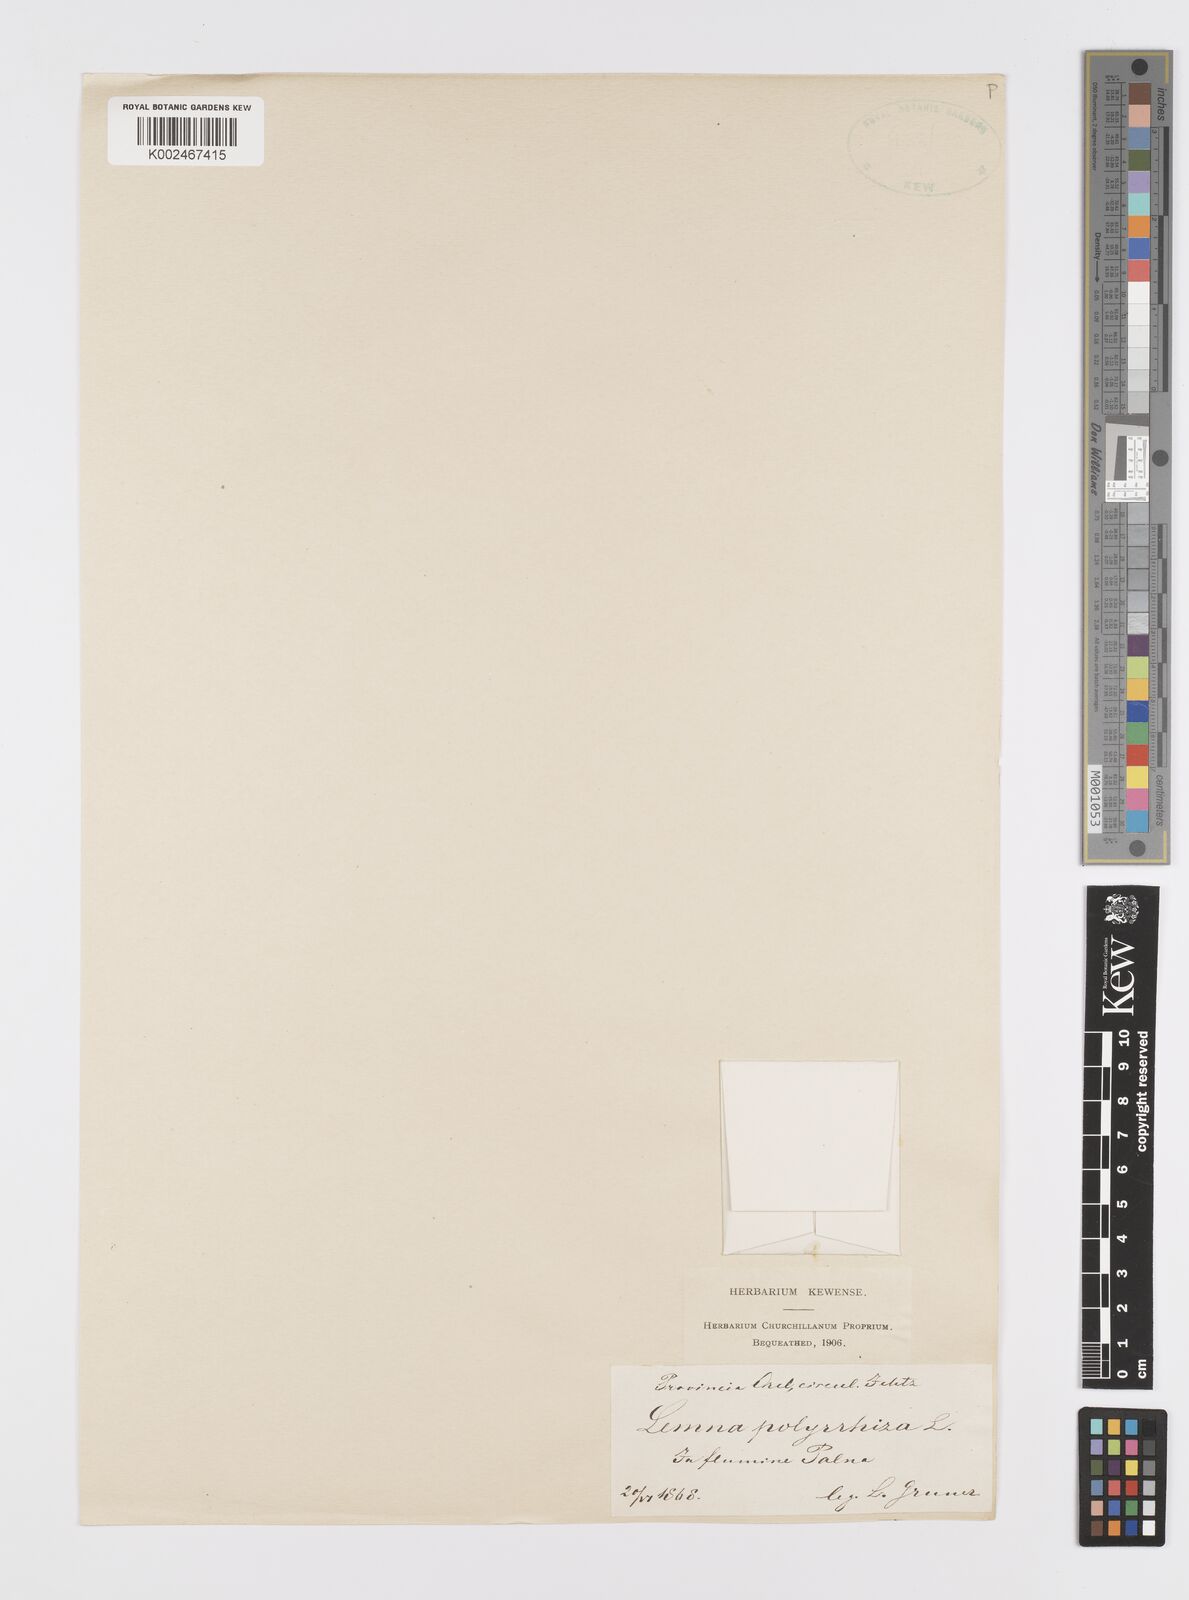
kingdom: Plantae
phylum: Tracheophyta
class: Liliopsida
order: Alismatales
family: Araceae
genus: Spirodela
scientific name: Spirodela polyrhiza
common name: Great duckweed
